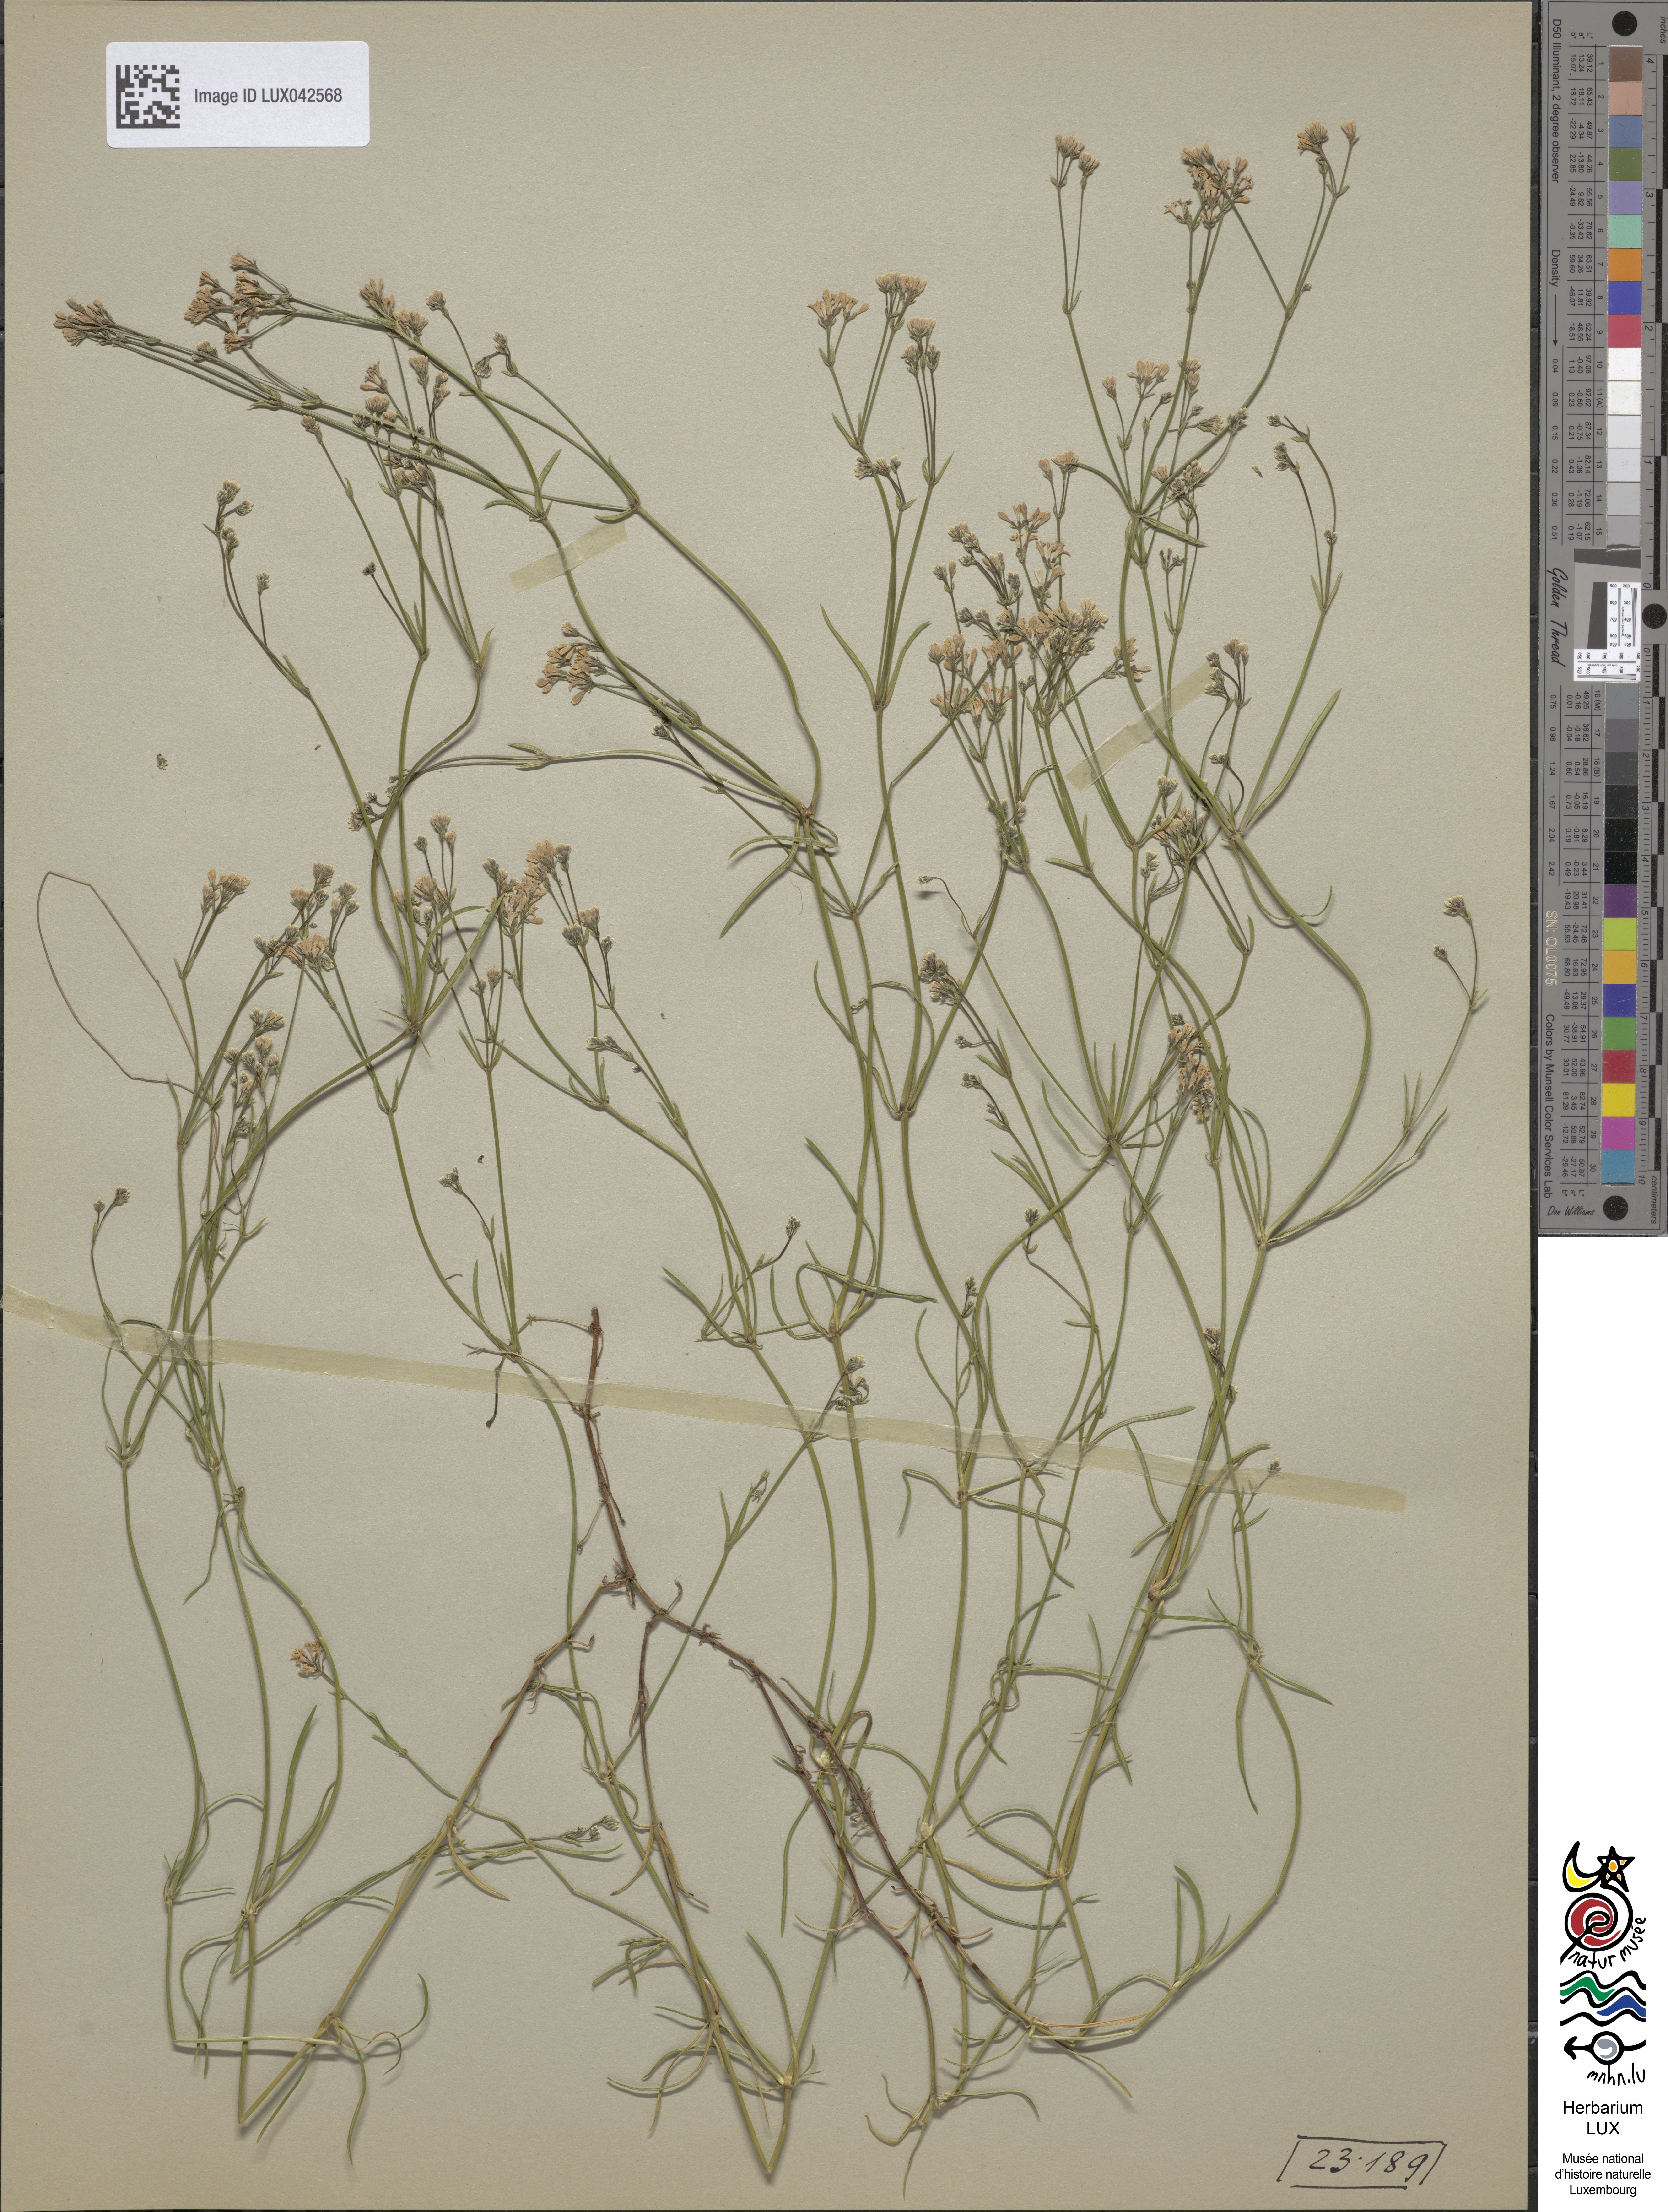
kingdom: Plantae
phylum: Tracheophyta
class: Magnoliopsida
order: Gentianales
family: Rubiaceae
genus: Cynanchica
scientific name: Cynanchica pyrenaica
